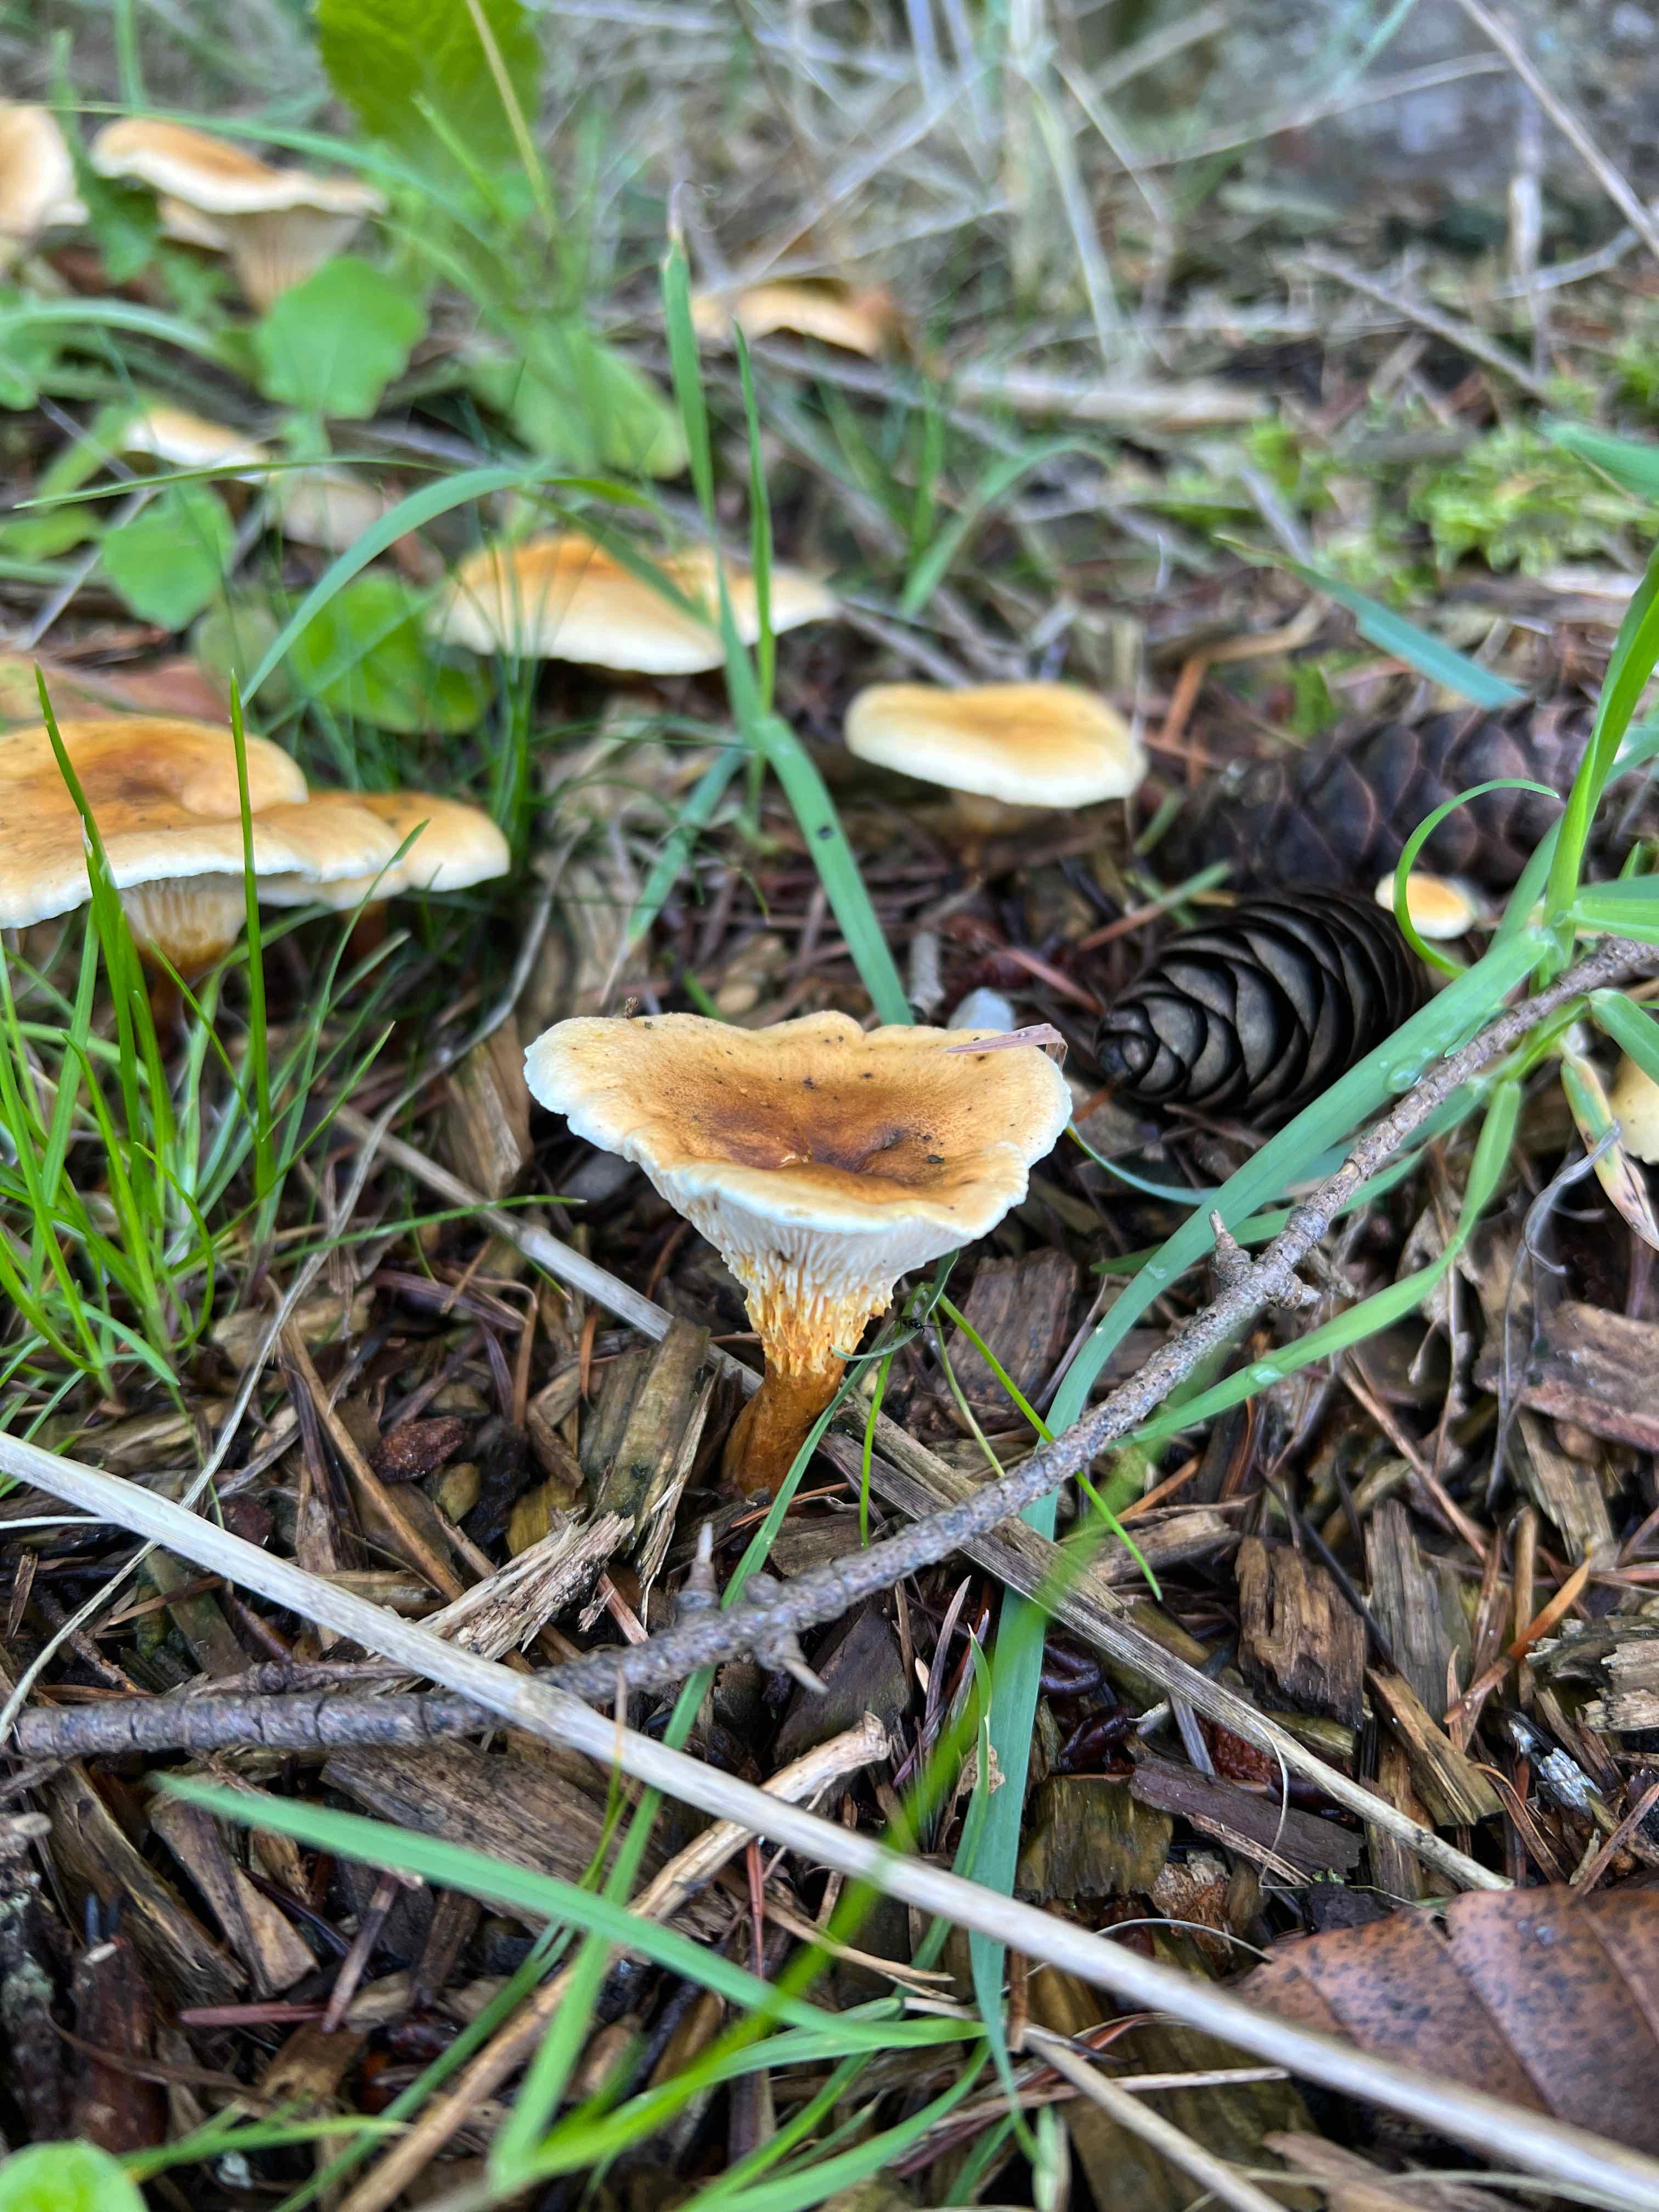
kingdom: Fungi
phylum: Basidiomycota
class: Agaricomycetes
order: Boletales
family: Hygrophoropsidaceae
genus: Hygrophoropsis
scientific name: Hygrophoropsis
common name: orangekantarel
